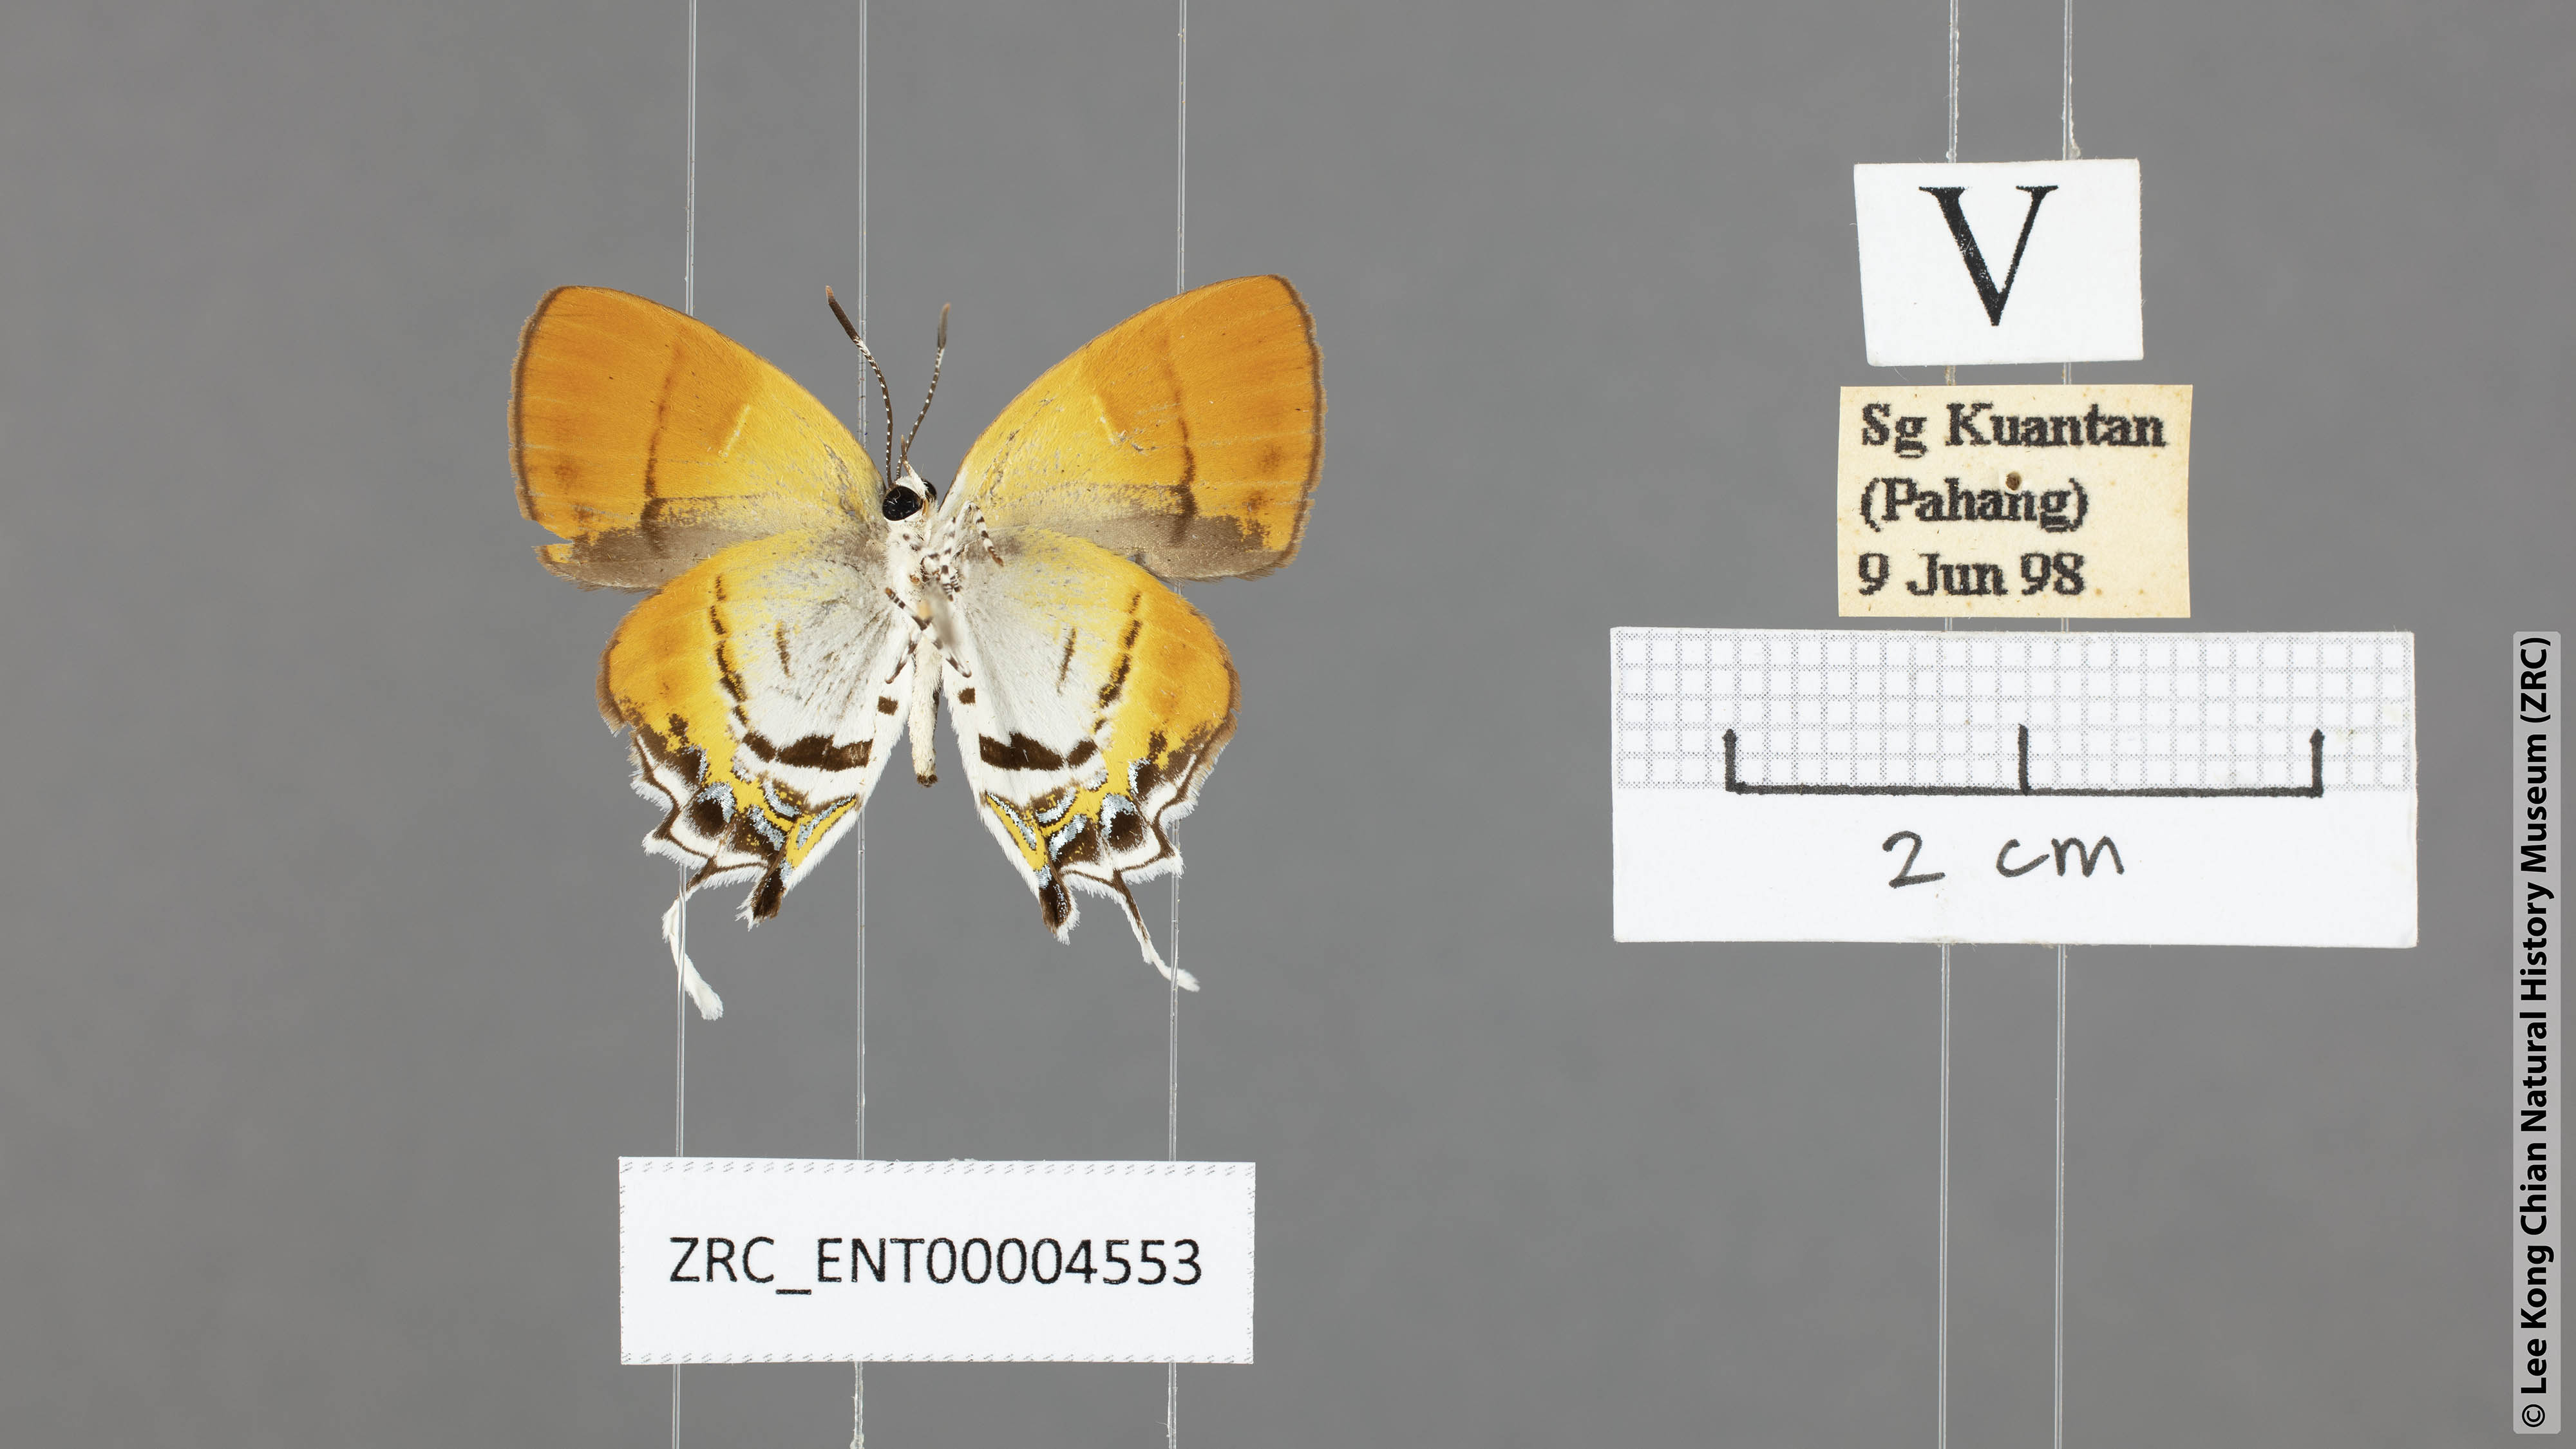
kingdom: Animalia
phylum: Arthropoda
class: Insecta
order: Lepidoptera
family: Lycaenidae
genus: Sithon
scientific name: Sithon nedymond
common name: Plush
